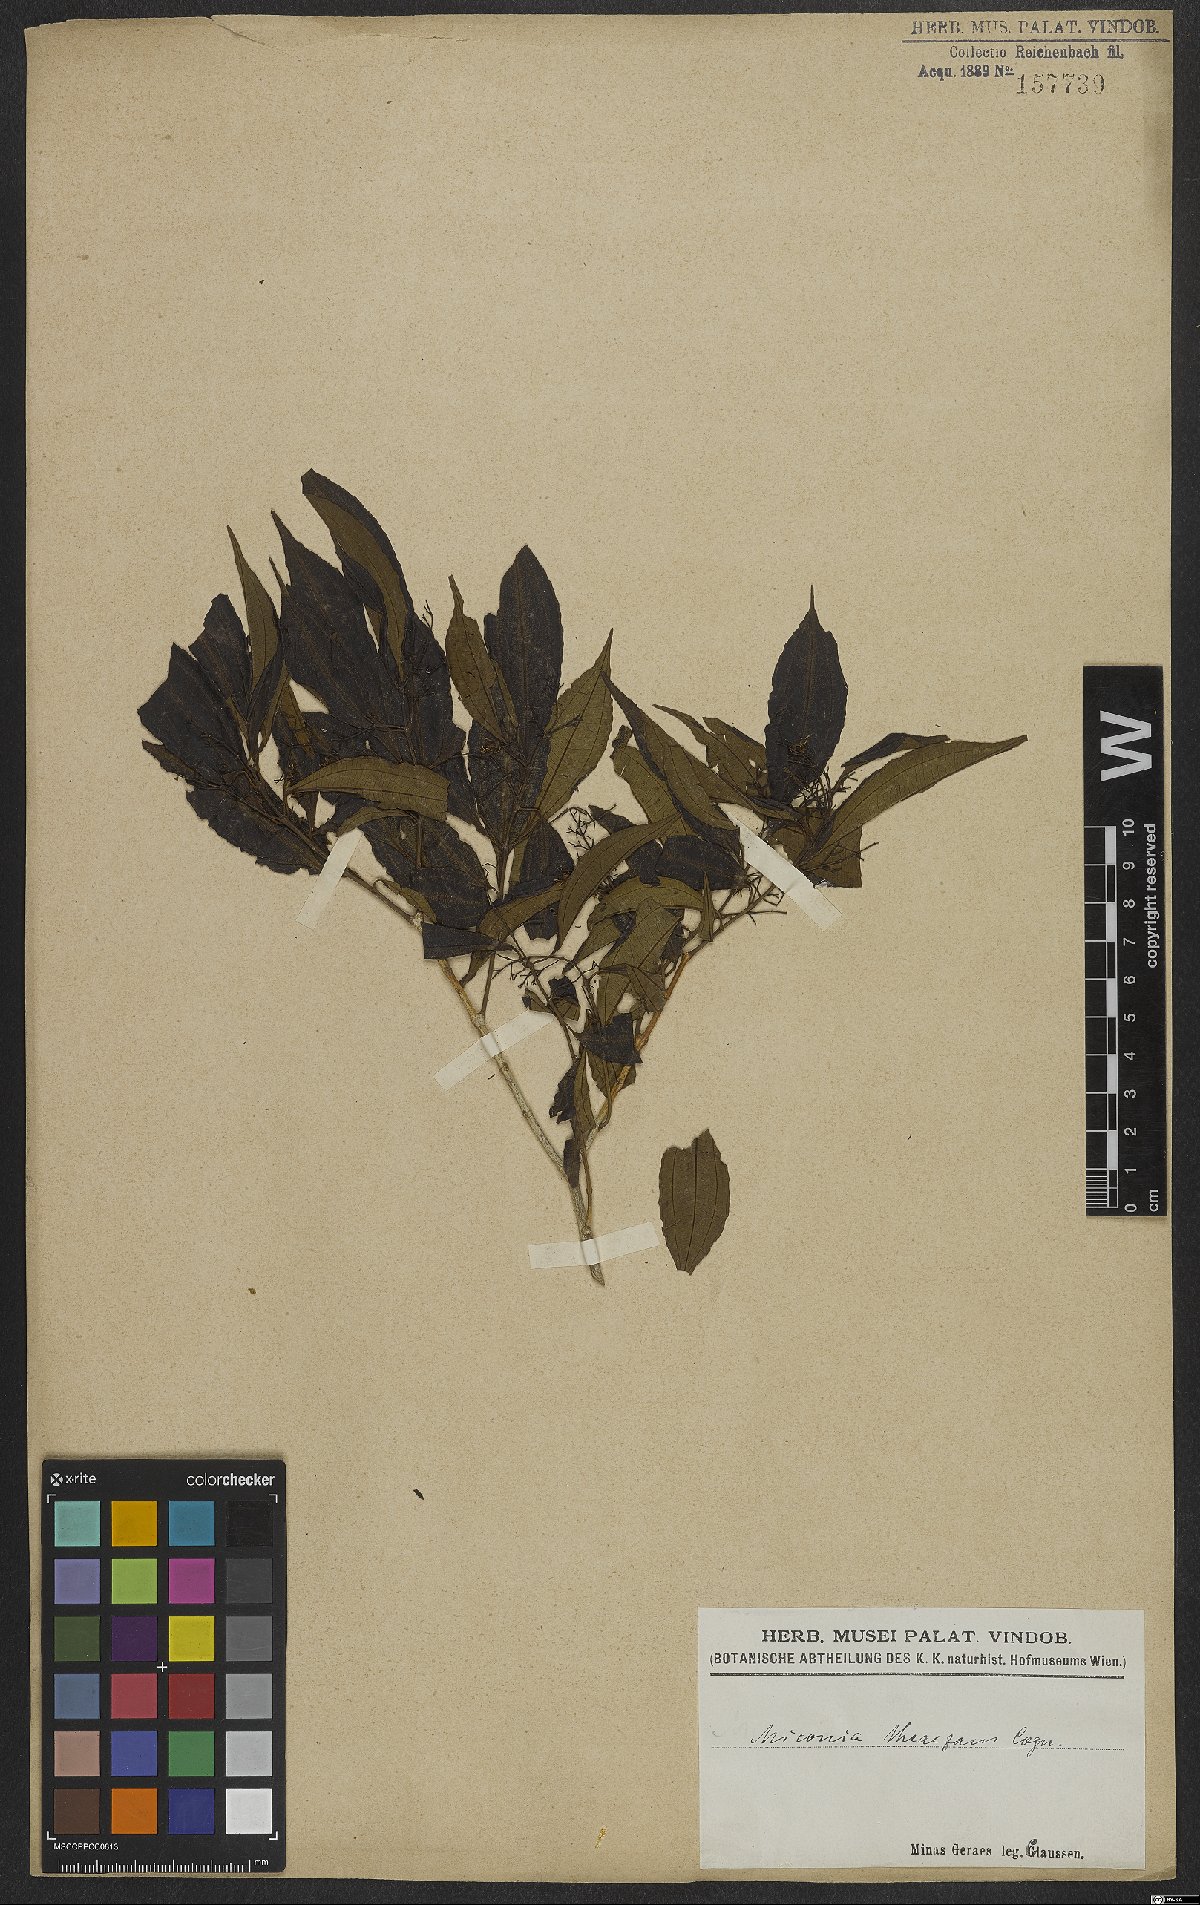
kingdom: Plantae
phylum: Tracheophyta
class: Magnoliopsida
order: Myrtales
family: Melastomataceae
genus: Miconia
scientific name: Miconia theizans
